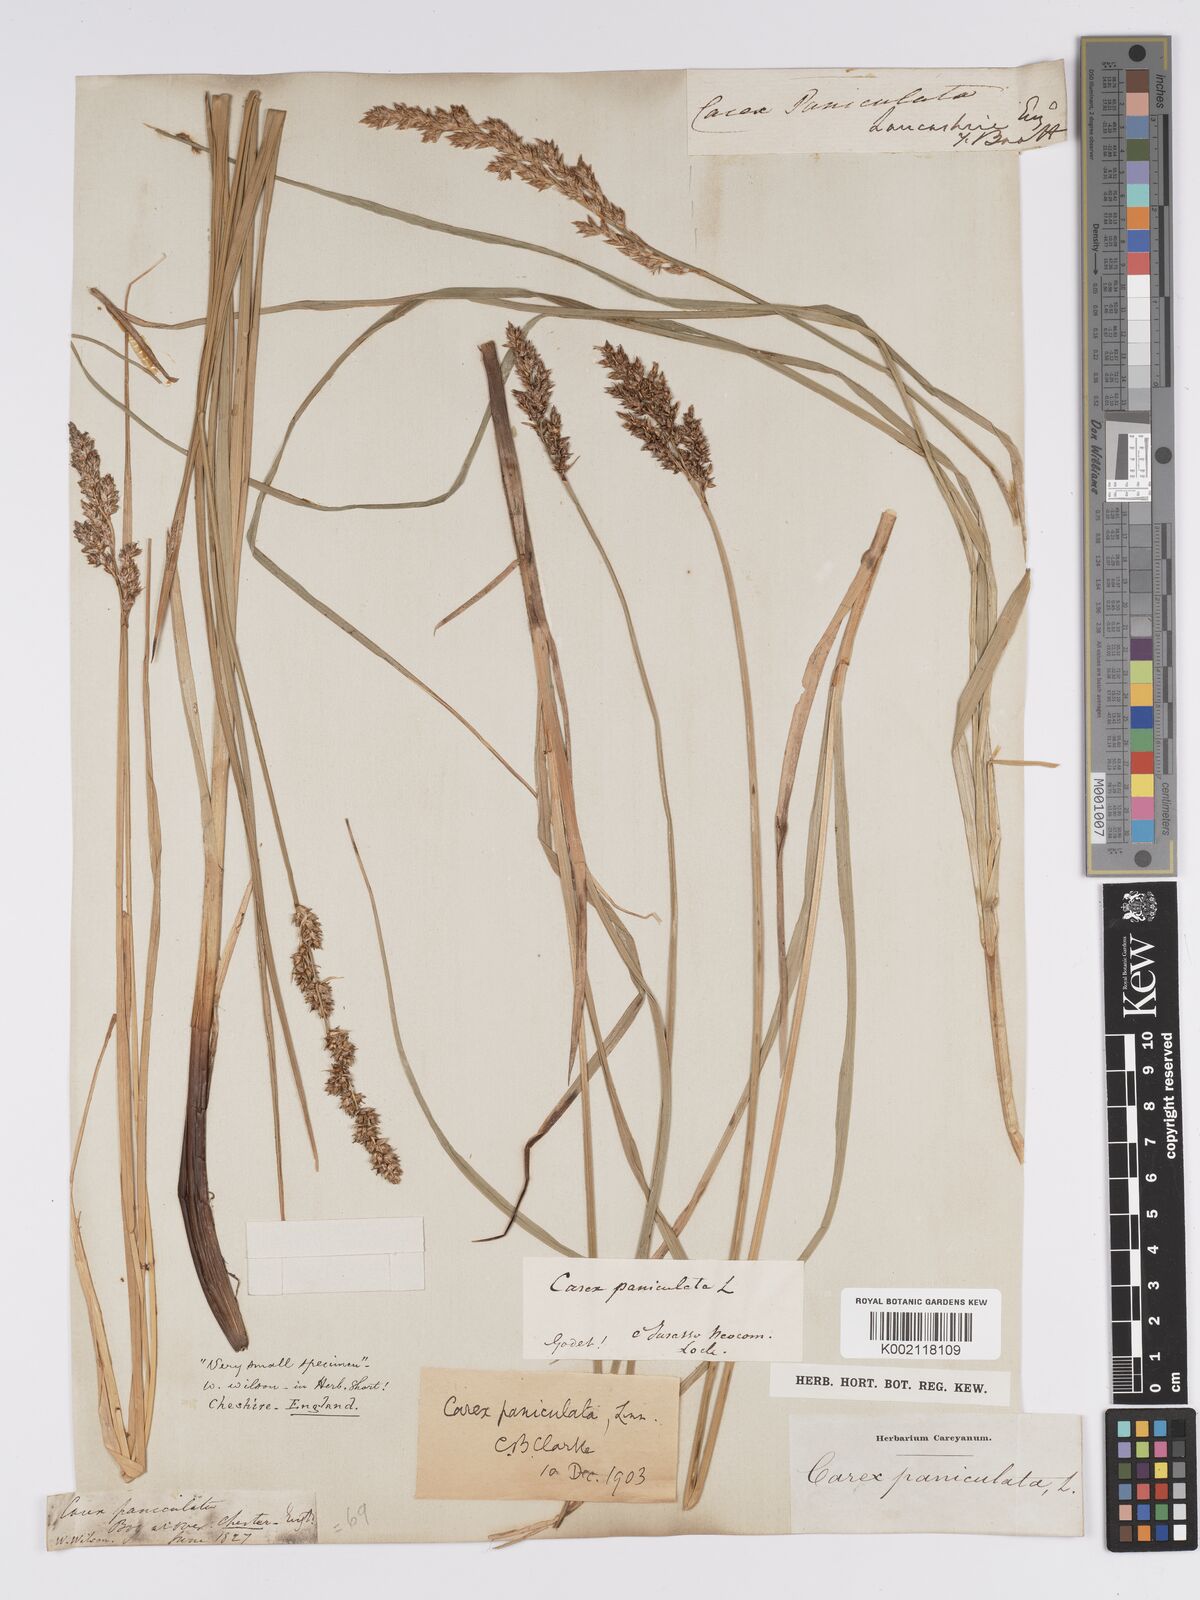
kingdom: Plantae
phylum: Tracheophyta
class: Liliopsida
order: Poales
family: Cyperaceae
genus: Carex
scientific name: Carex paniculata
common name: Greater tussock-sedge
